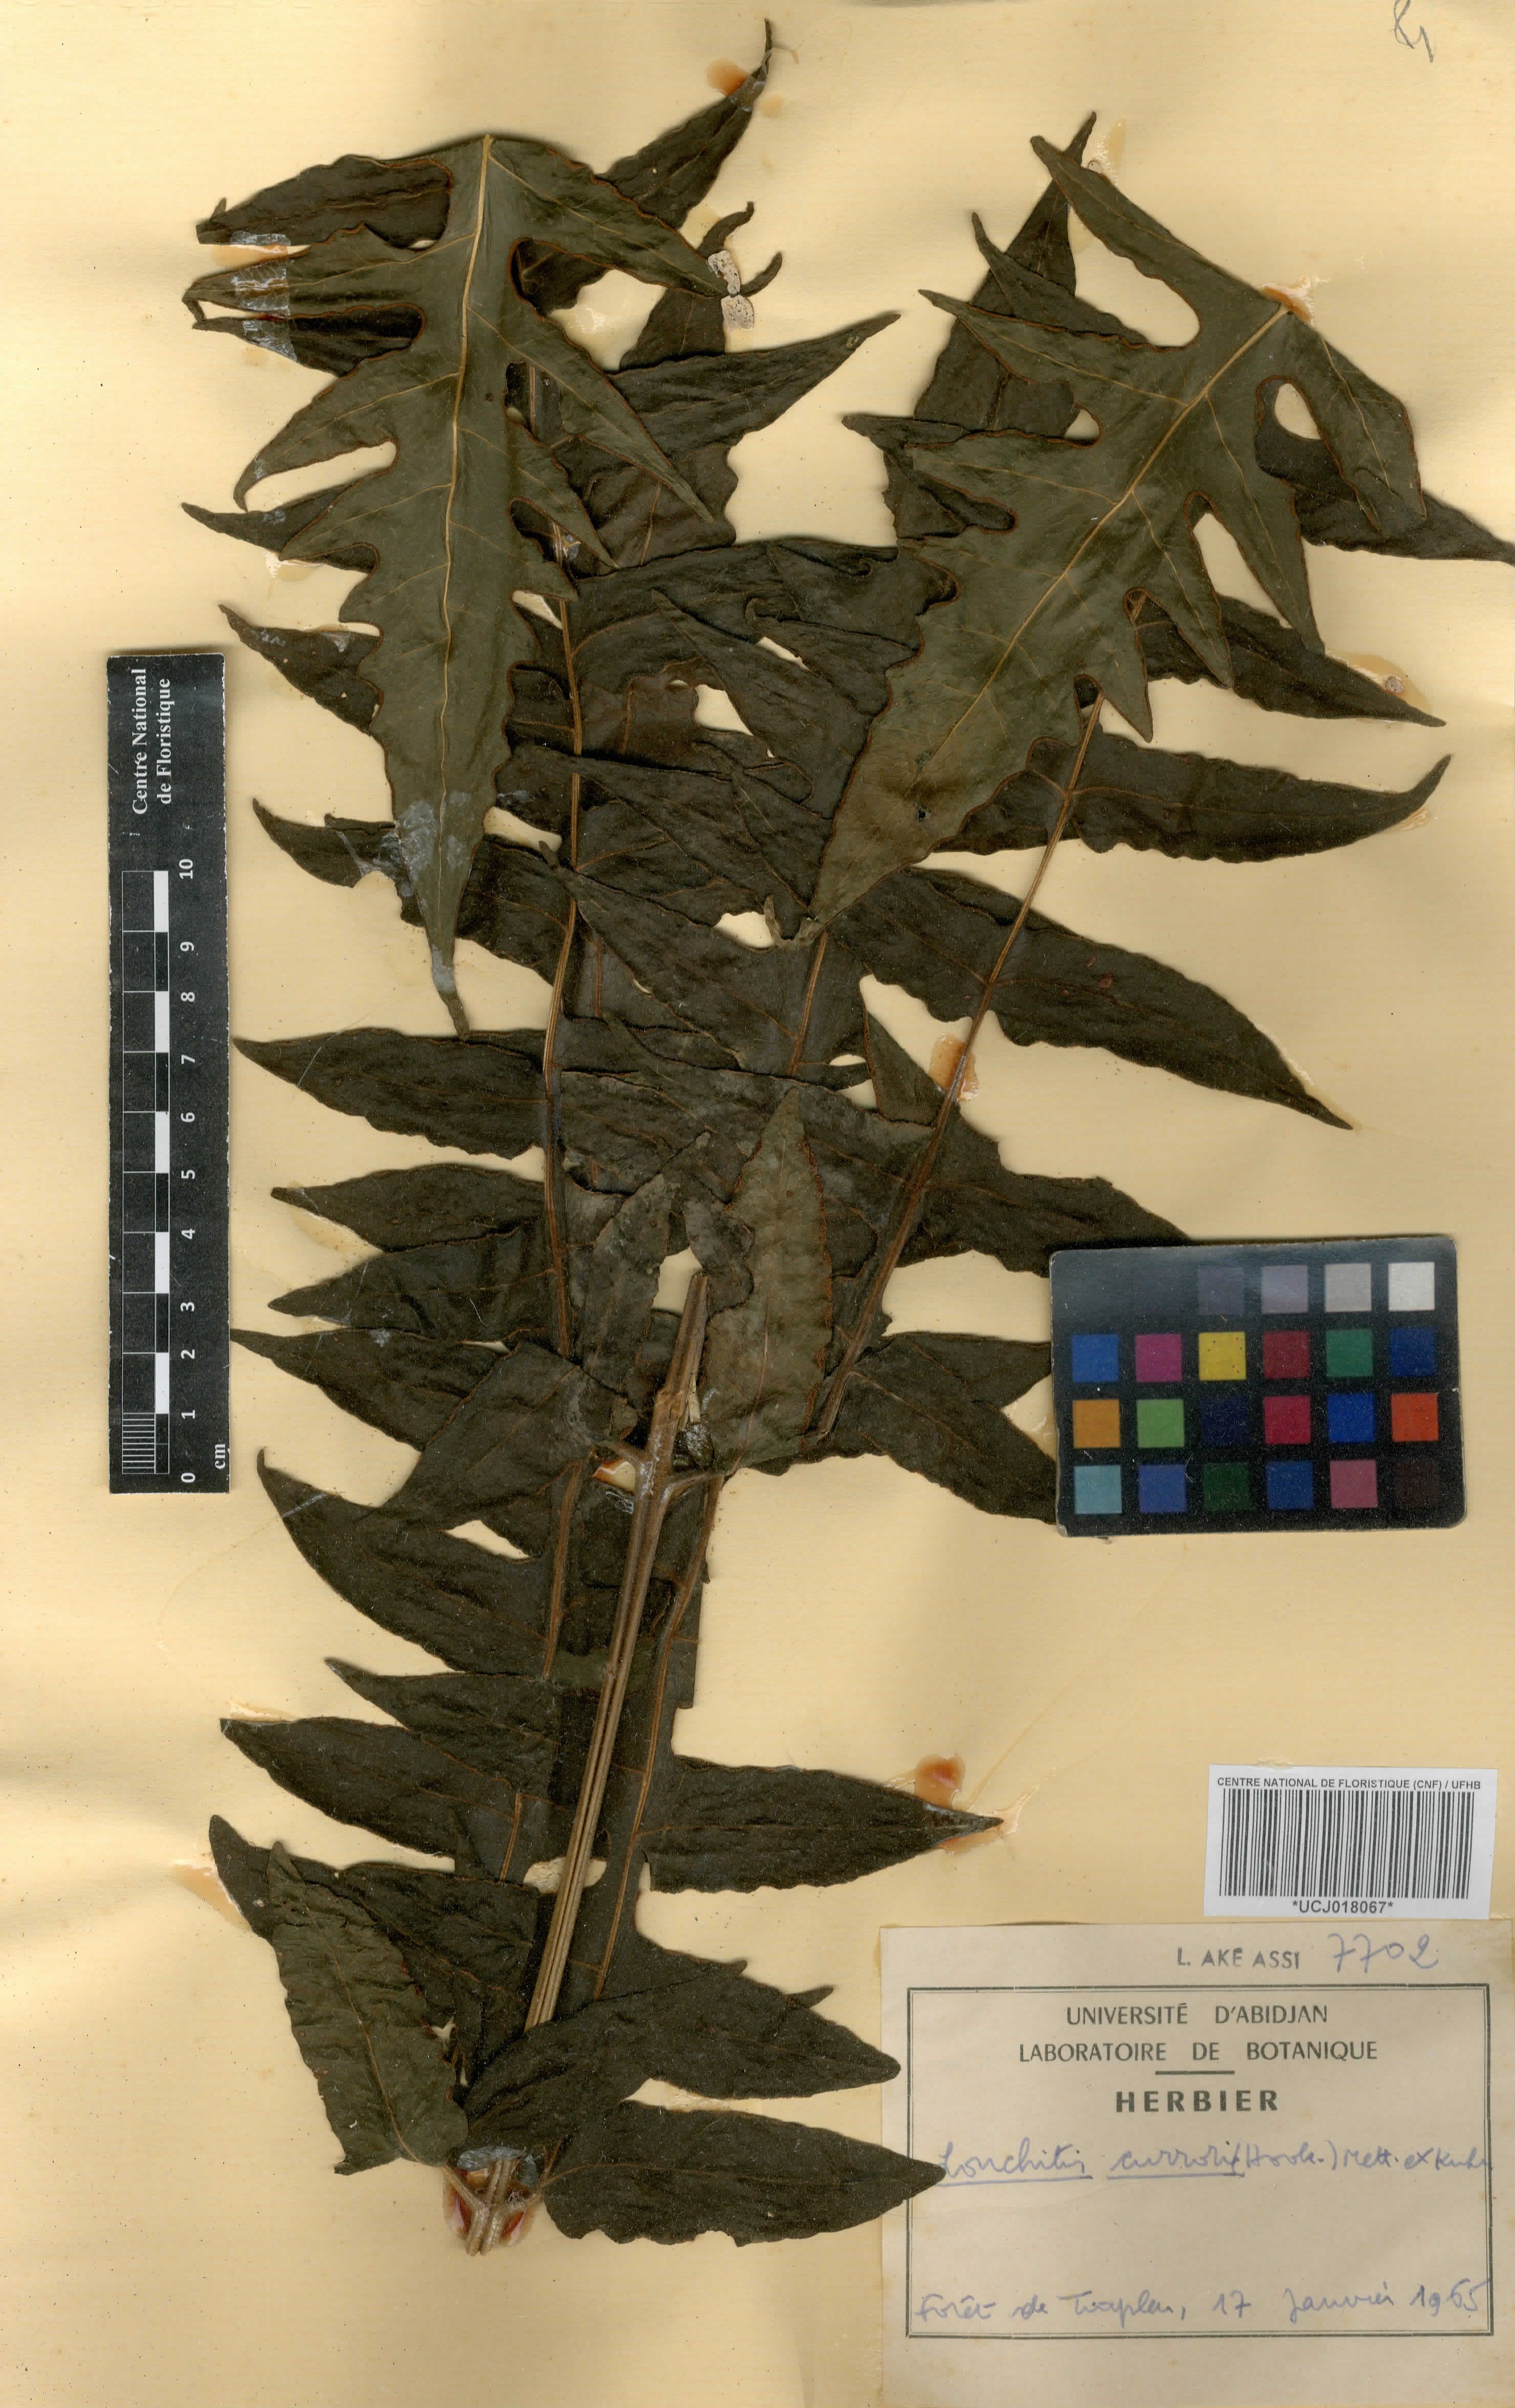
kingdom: Plantae
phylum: Tracheophyta
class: Polypodiopsida
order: Polypodiales
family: Dennstaedtiaceae
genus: Blotiella
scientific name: Blotiella currorii
